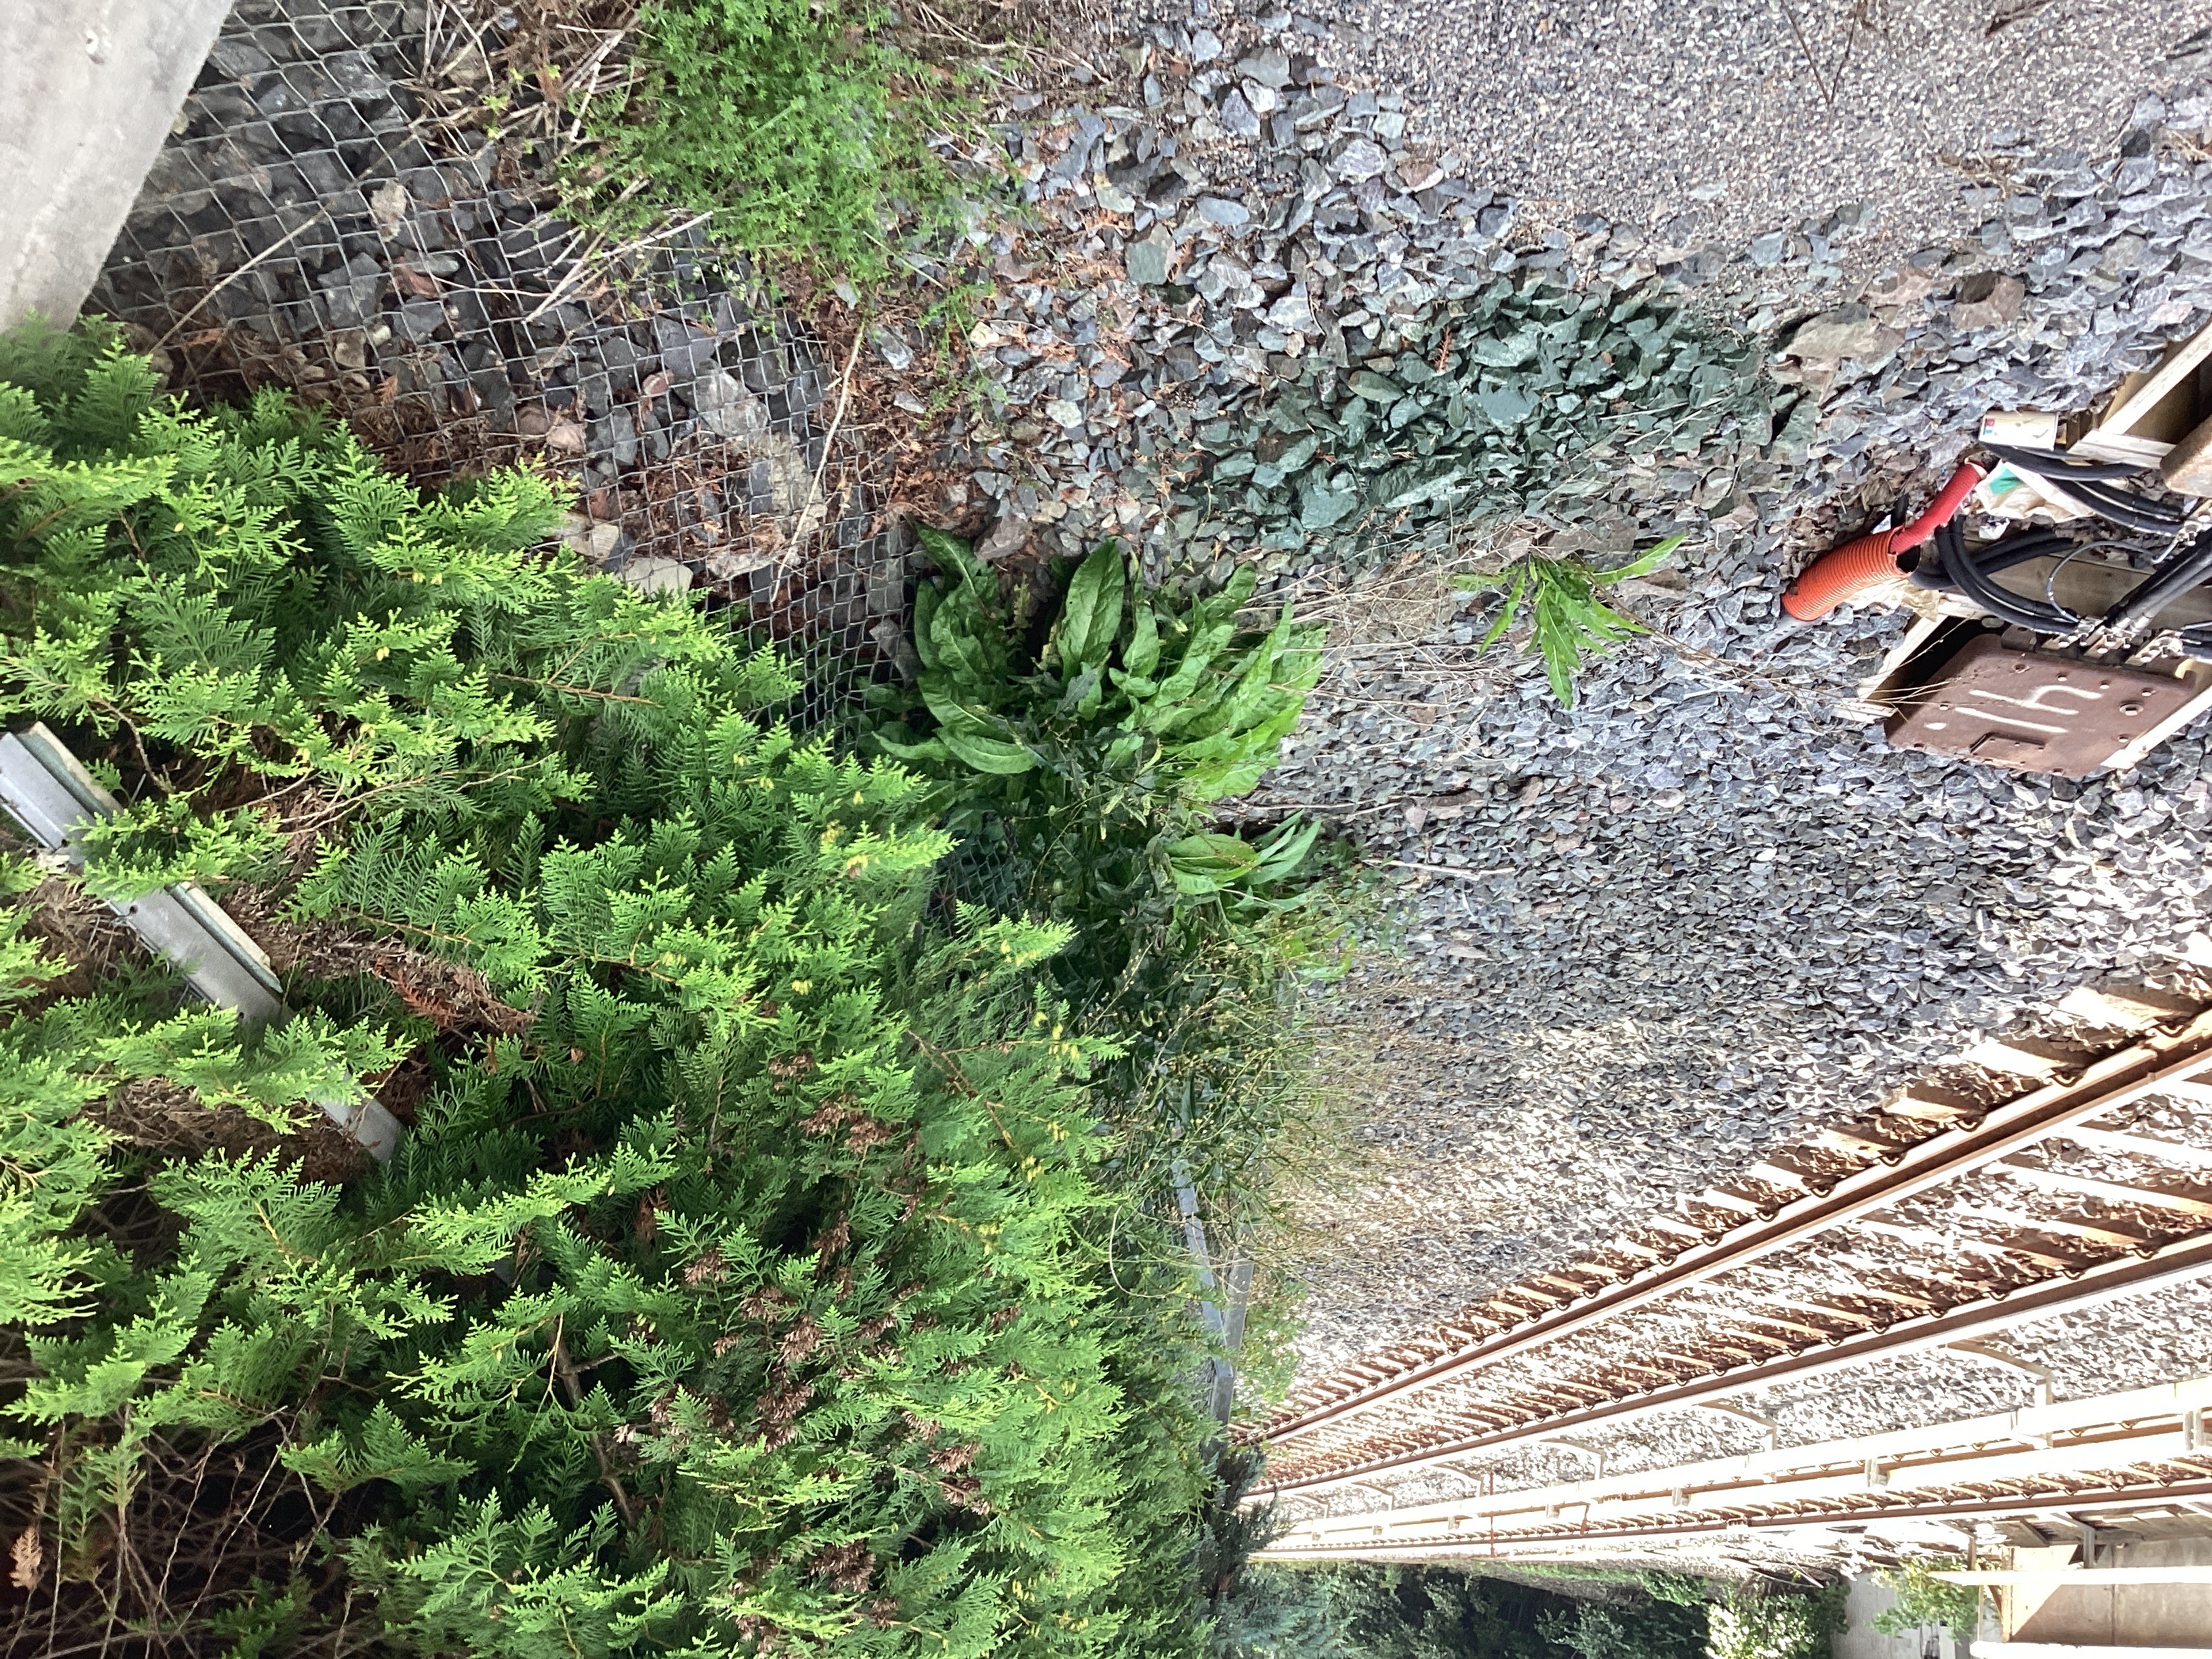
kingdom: Plantae
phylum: Tracheophyta
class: Magnoliopsida
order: Brassicales
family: Brassicaceae
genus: Bunias
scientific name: Bunias orientalis
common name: russekål
